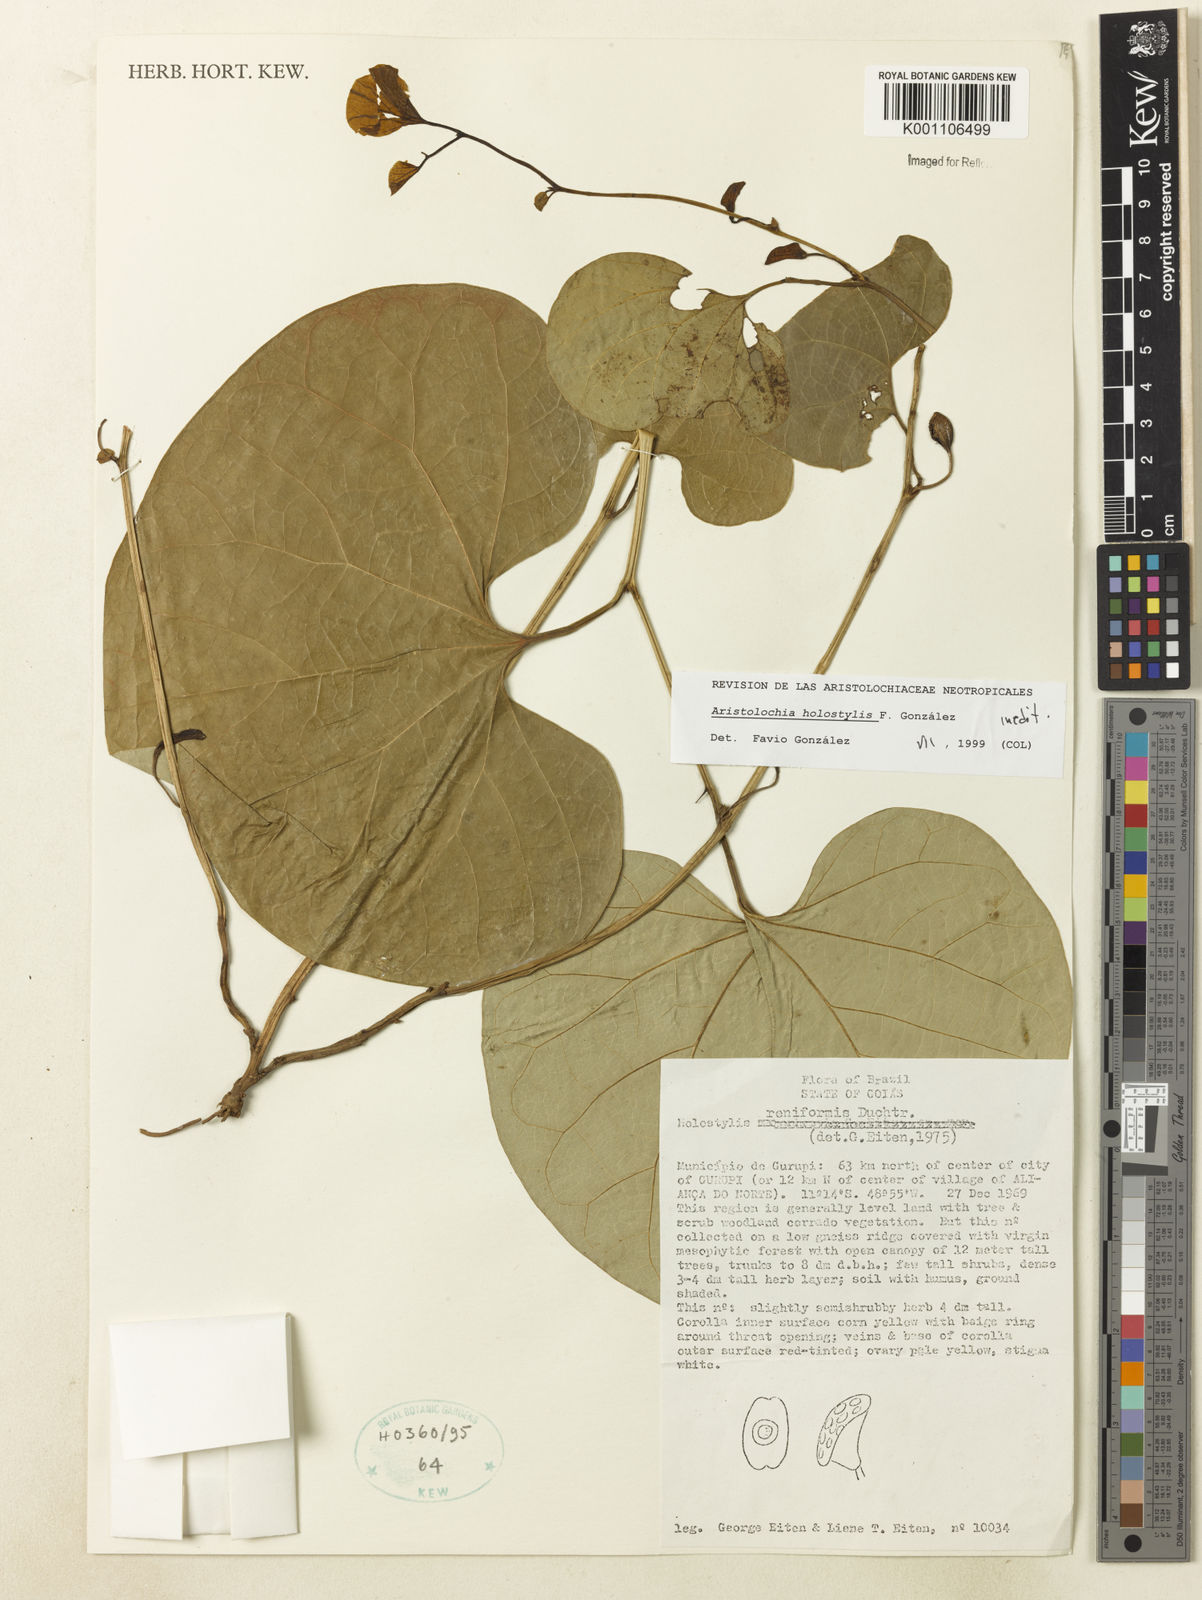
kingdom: Plantae
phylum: Tracheophyta
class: Magnoliopsida
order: Piperales
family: Aristolochiaceae
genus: Aristolochia
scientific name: Aristolochia
